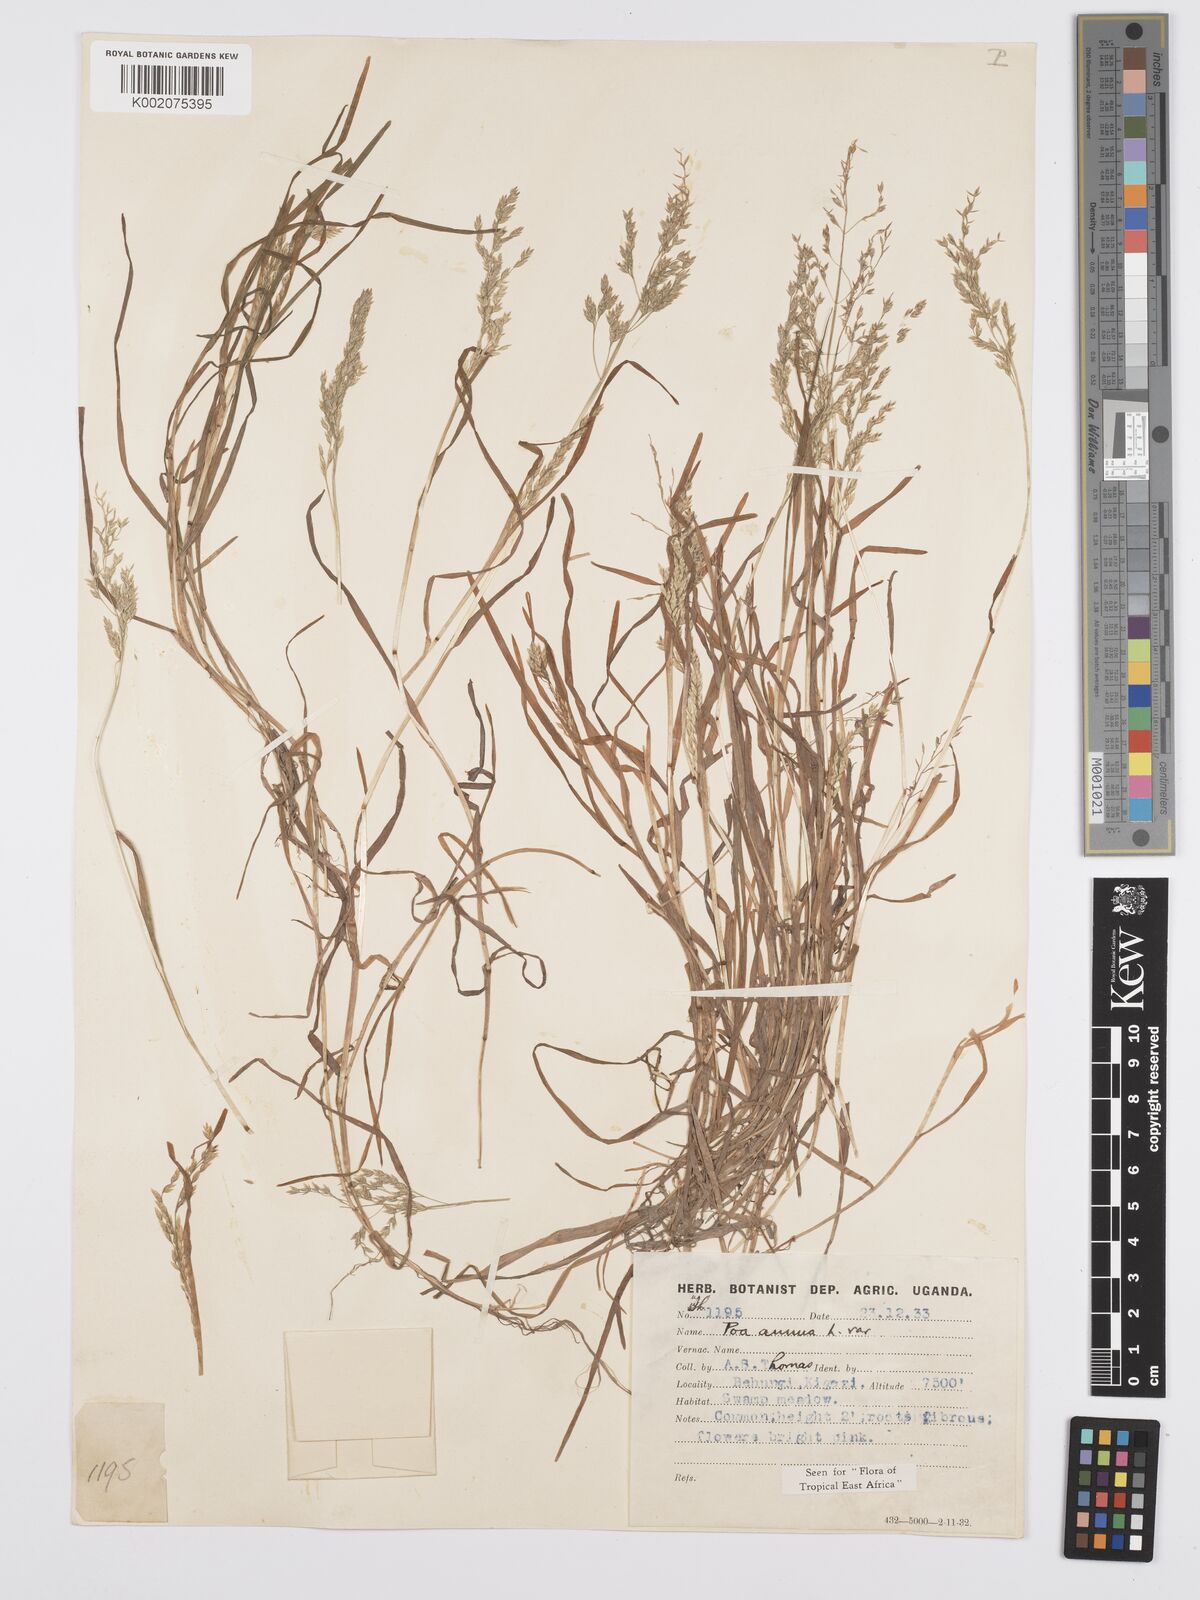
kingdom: Plantae
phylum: Tracheophyta
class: Liliopsida
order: Poales
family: Poaceae
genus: Poa
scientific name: Poa annua
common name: Annual bluegrass
